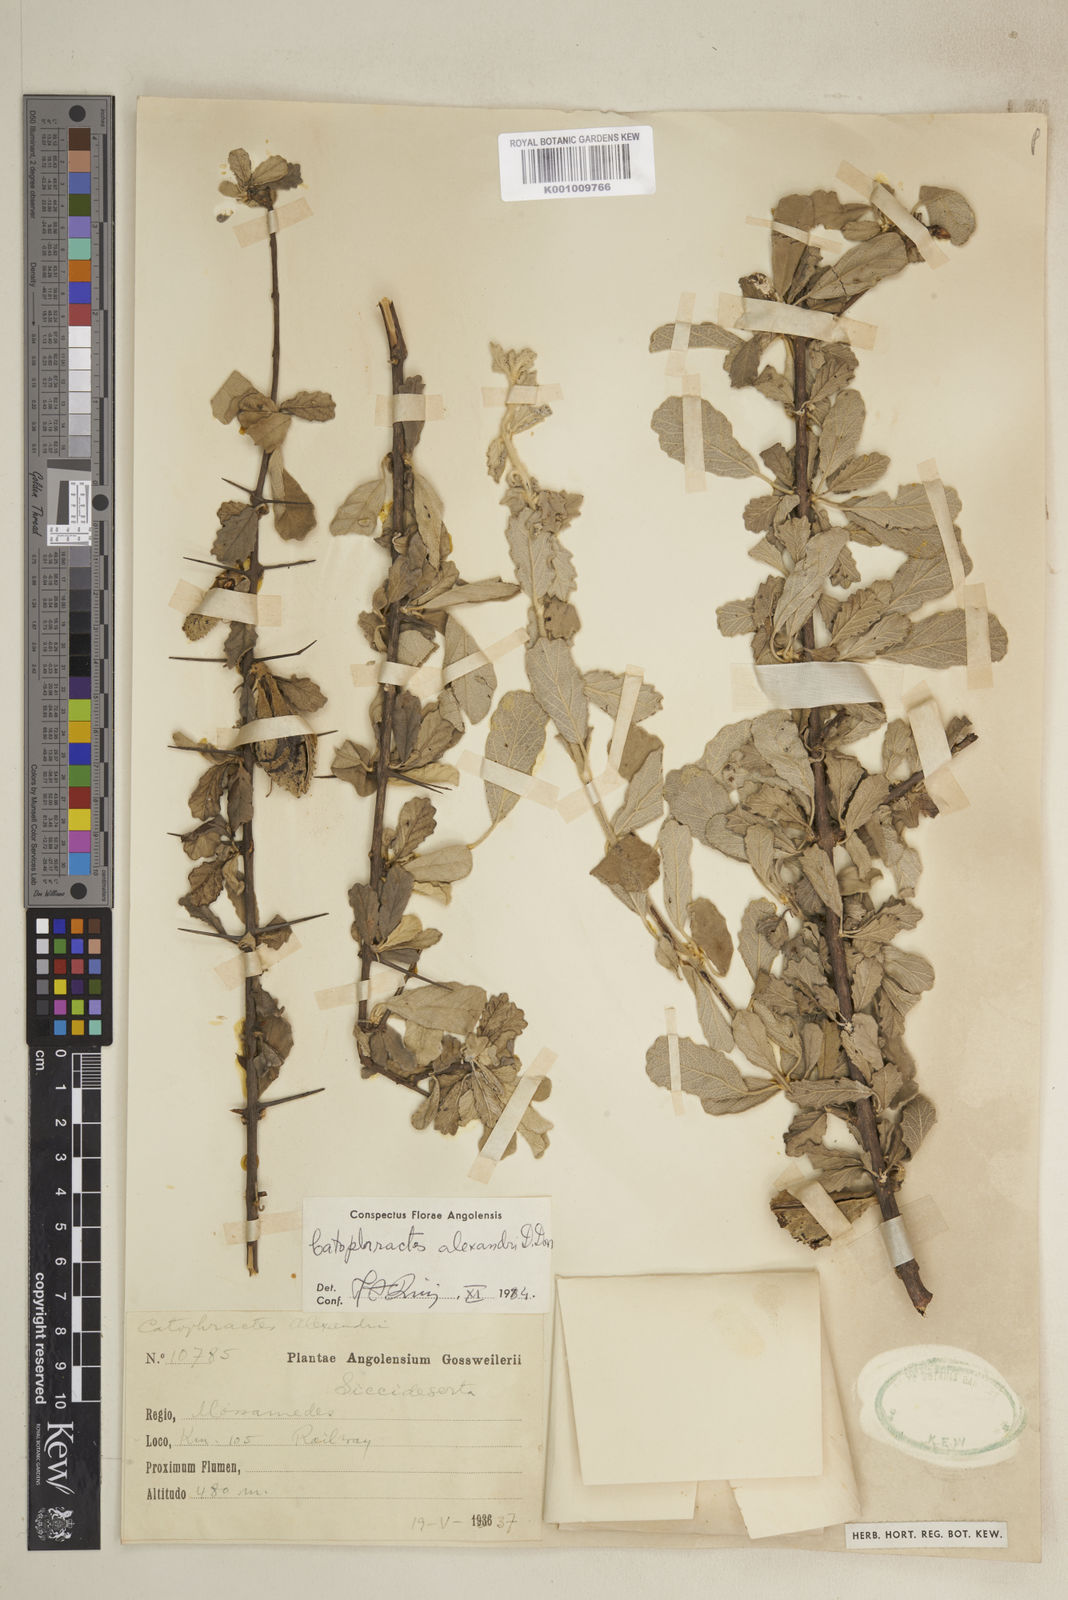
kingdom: Plantae
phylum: Tracheophyta
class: Magnoliopsida
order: Lamiales
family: Bignoniaceae
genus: Catophractes
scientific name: Catophractes alexandri
